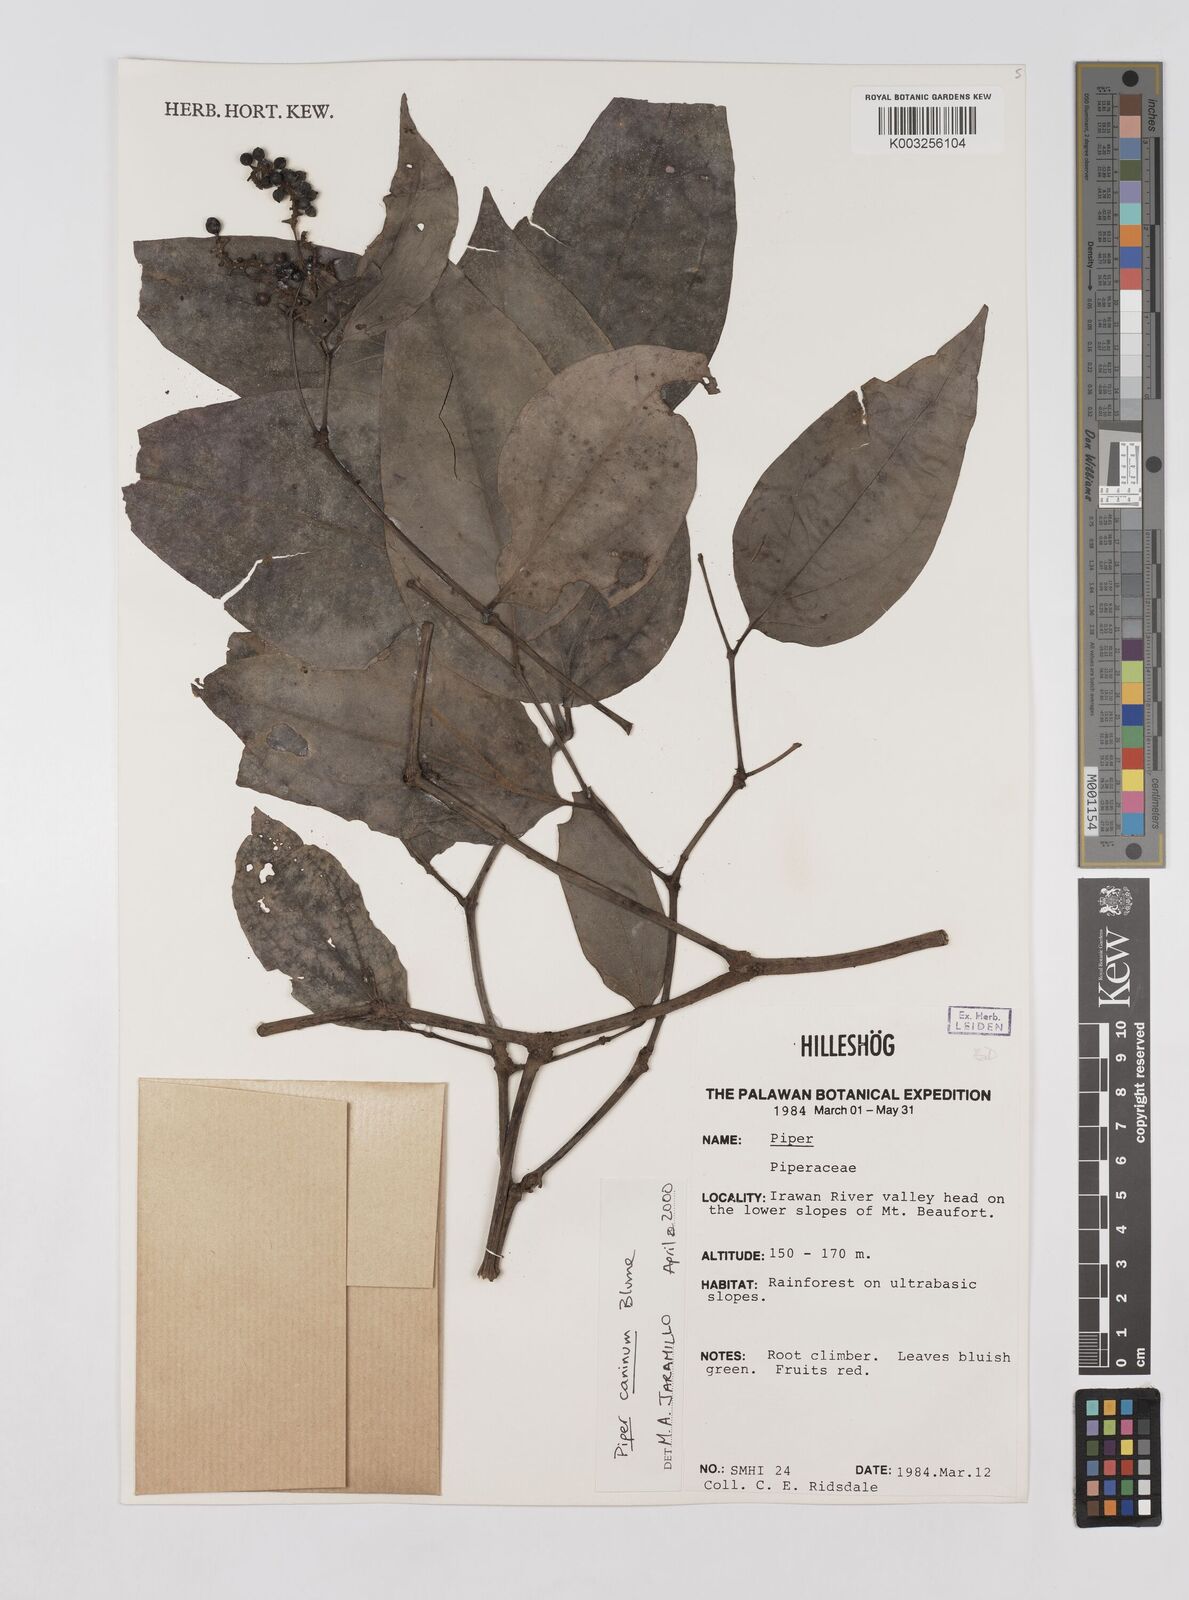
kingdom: Plantae
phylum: Tracheophyta
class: Magnoliopsida
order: Piperales
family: Piperaceae
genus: Piper
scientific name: Piper lanatum
